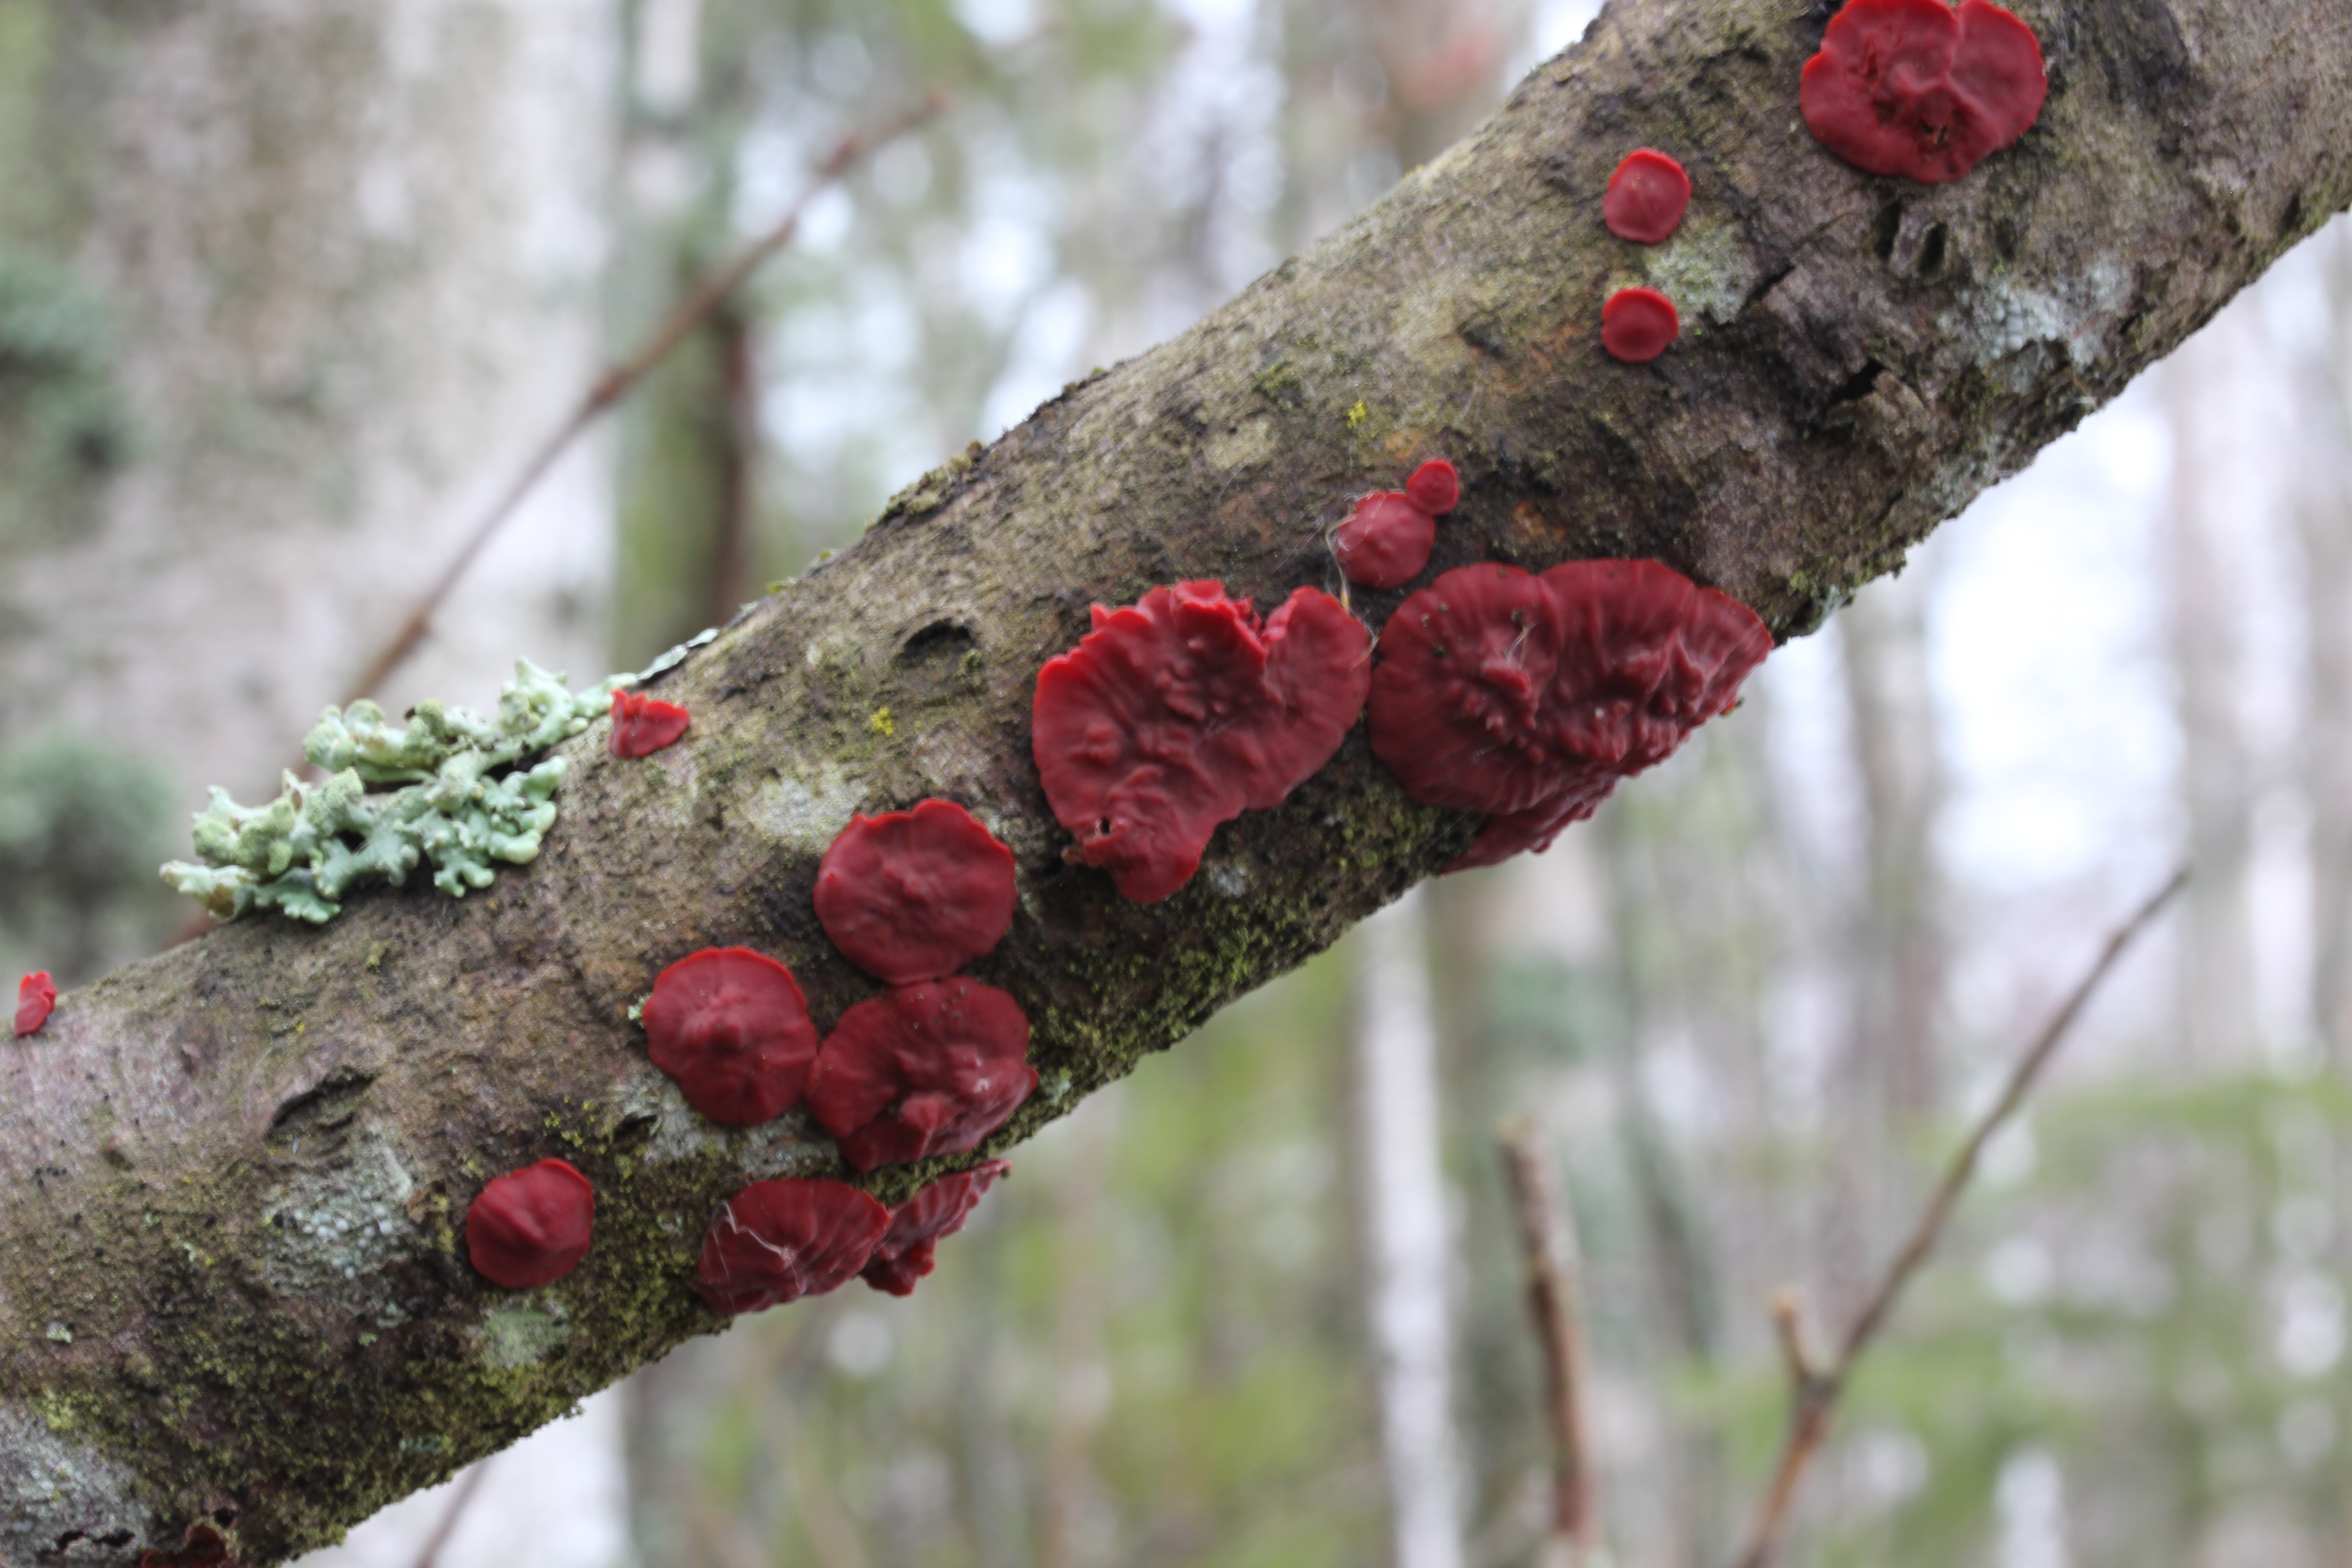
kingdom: Fungi
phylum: Basidiomycota
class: Agaricomycetes
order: Corticiales
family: Vuilleminiaceae
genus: Cytidia
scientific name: Cytidia salicina
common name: Scarlet splash
